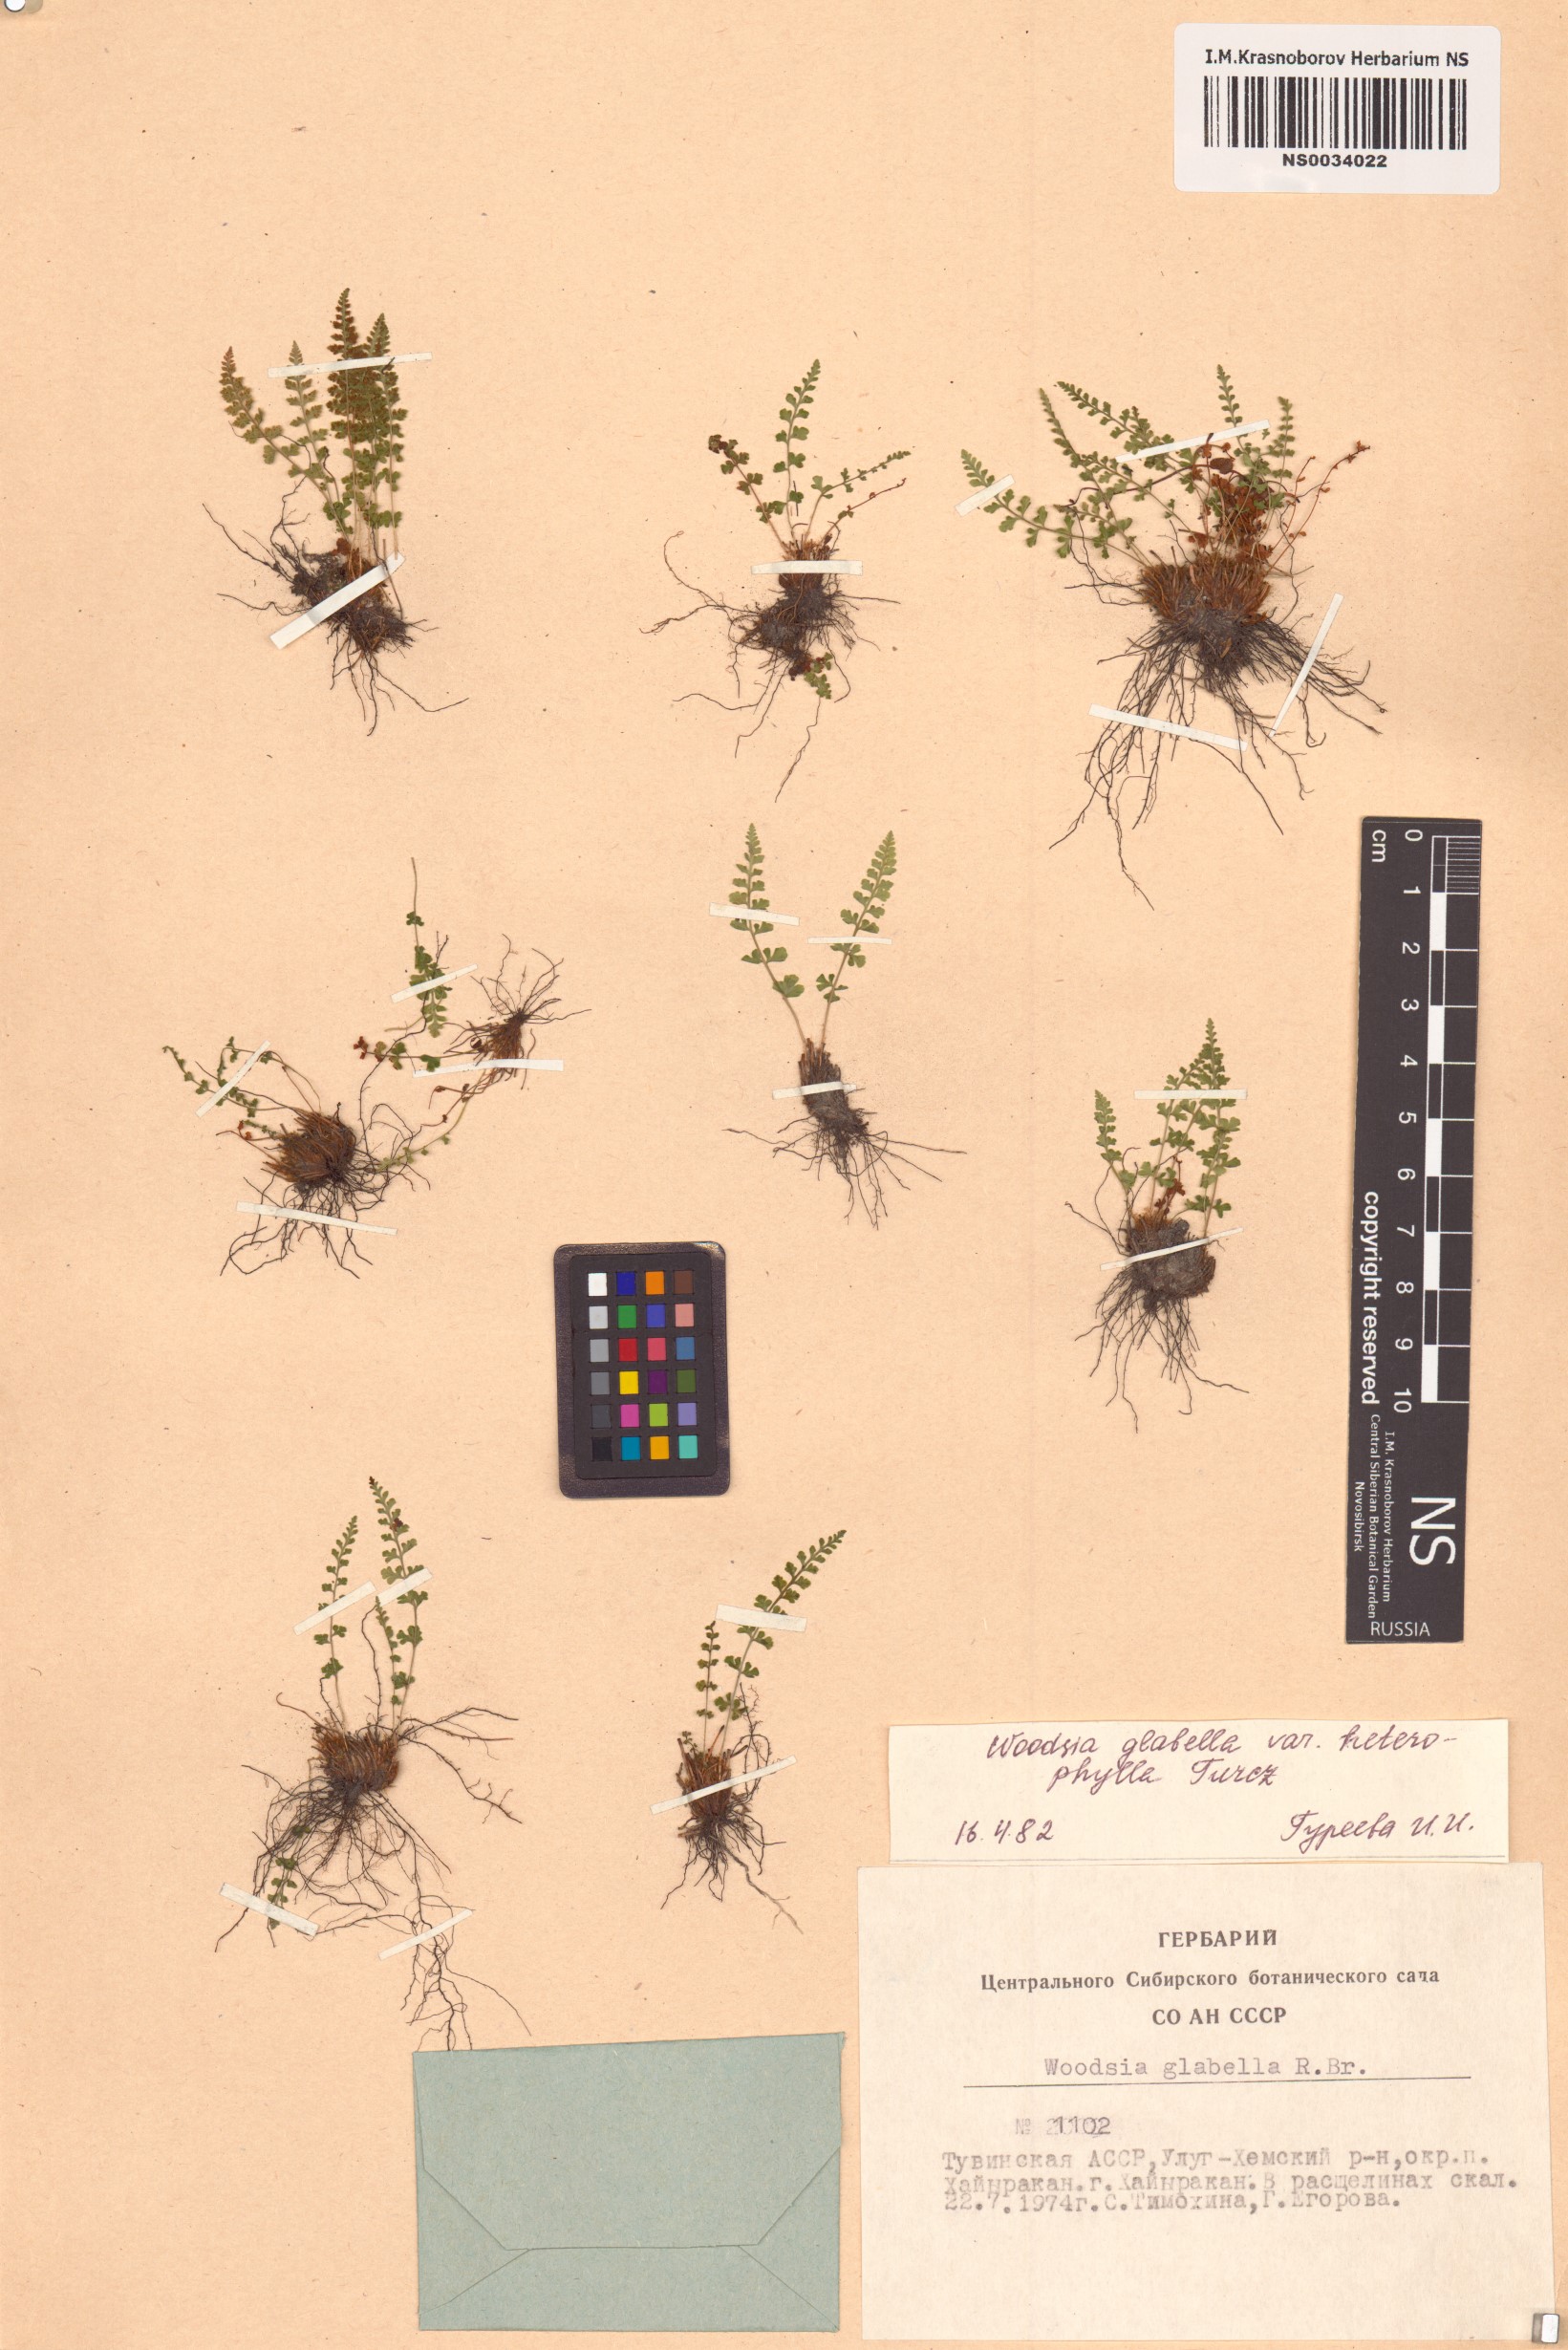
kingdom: Plantae
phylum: Tracheophyta
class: Polypodiopsida
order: Polypodiales
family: Woodsiaceae
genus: Woodsia
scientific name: Woodsia pulchella
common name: Graceful woodsia
